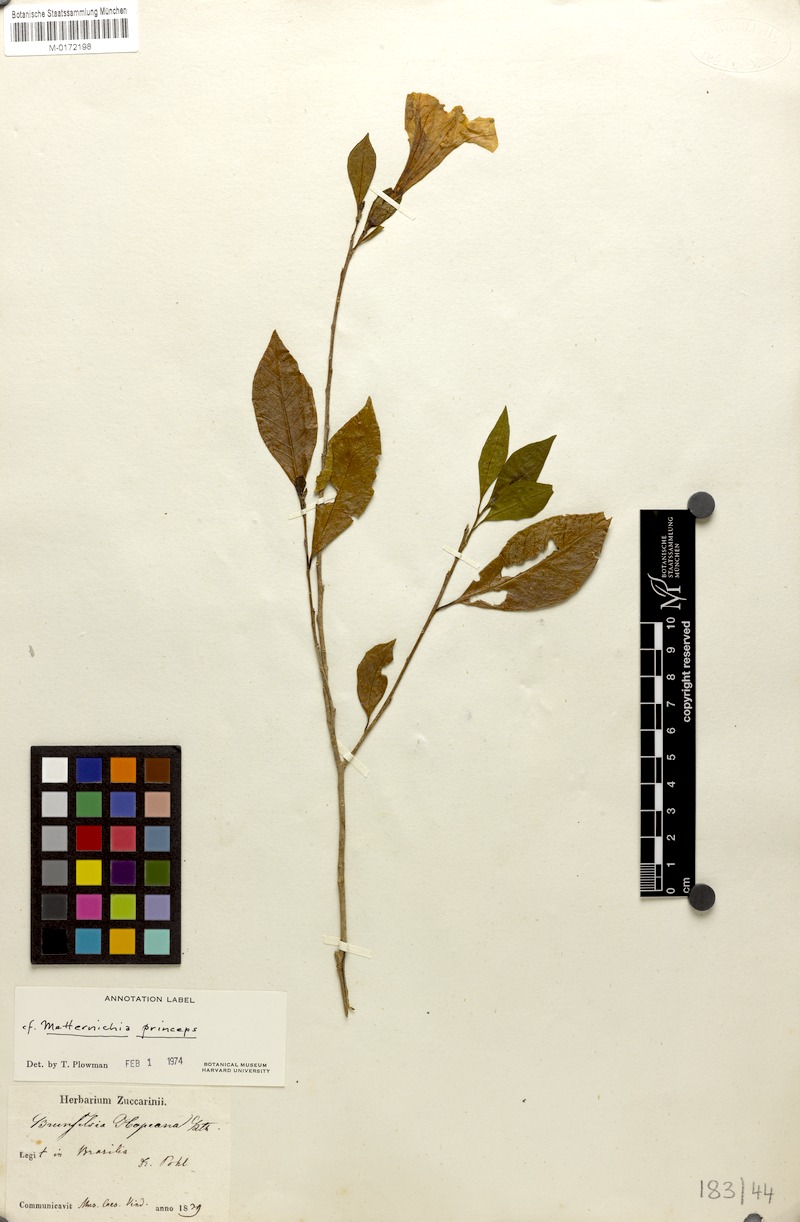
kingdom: Plantae
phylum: Tracheophyta
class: Magnoliopsida
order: Solanales
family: Solanaceae
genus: Metternichia
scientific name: Metternichia princeps
